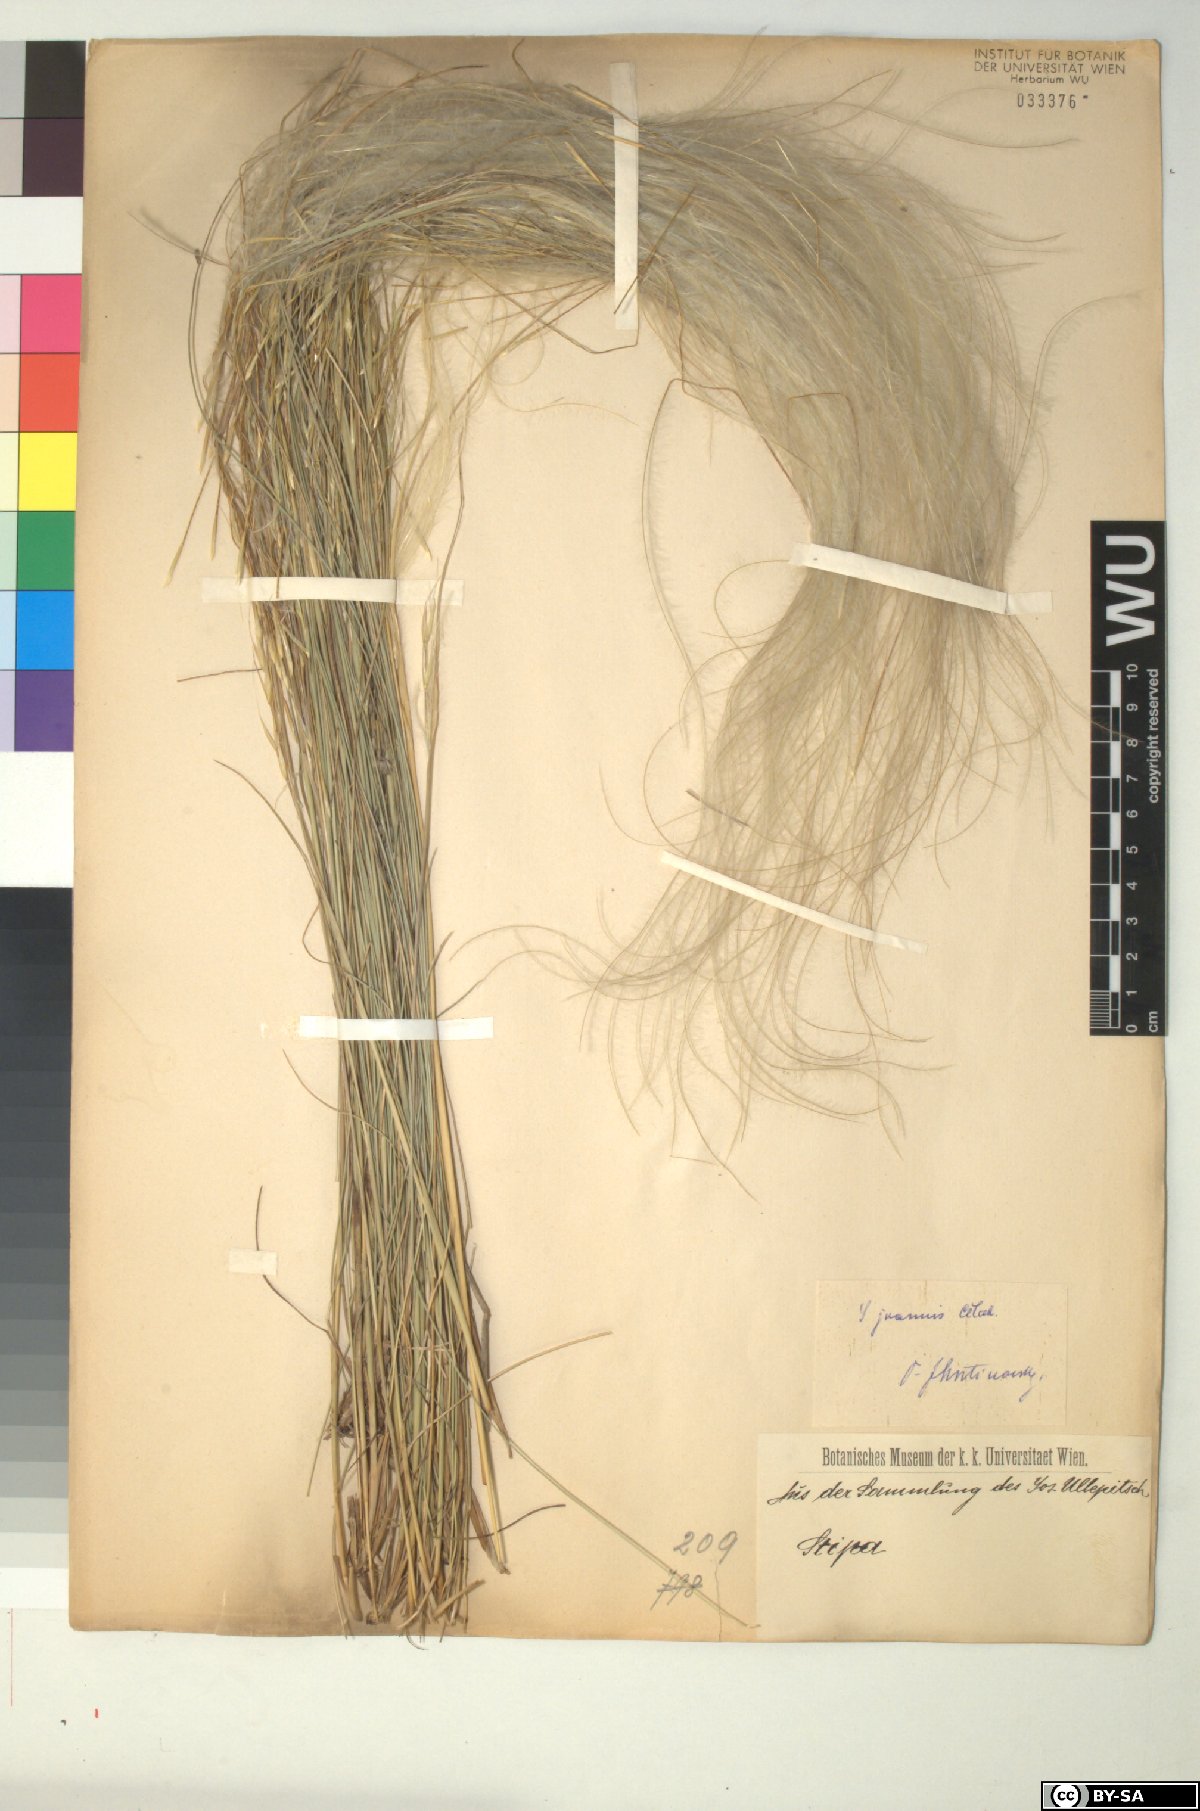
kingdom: Plantae
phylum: Tracheophyta
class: Liliopsida
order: Poales
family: Poaceae
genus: Stipa
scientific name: Stipa pennata
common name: European feather grass
